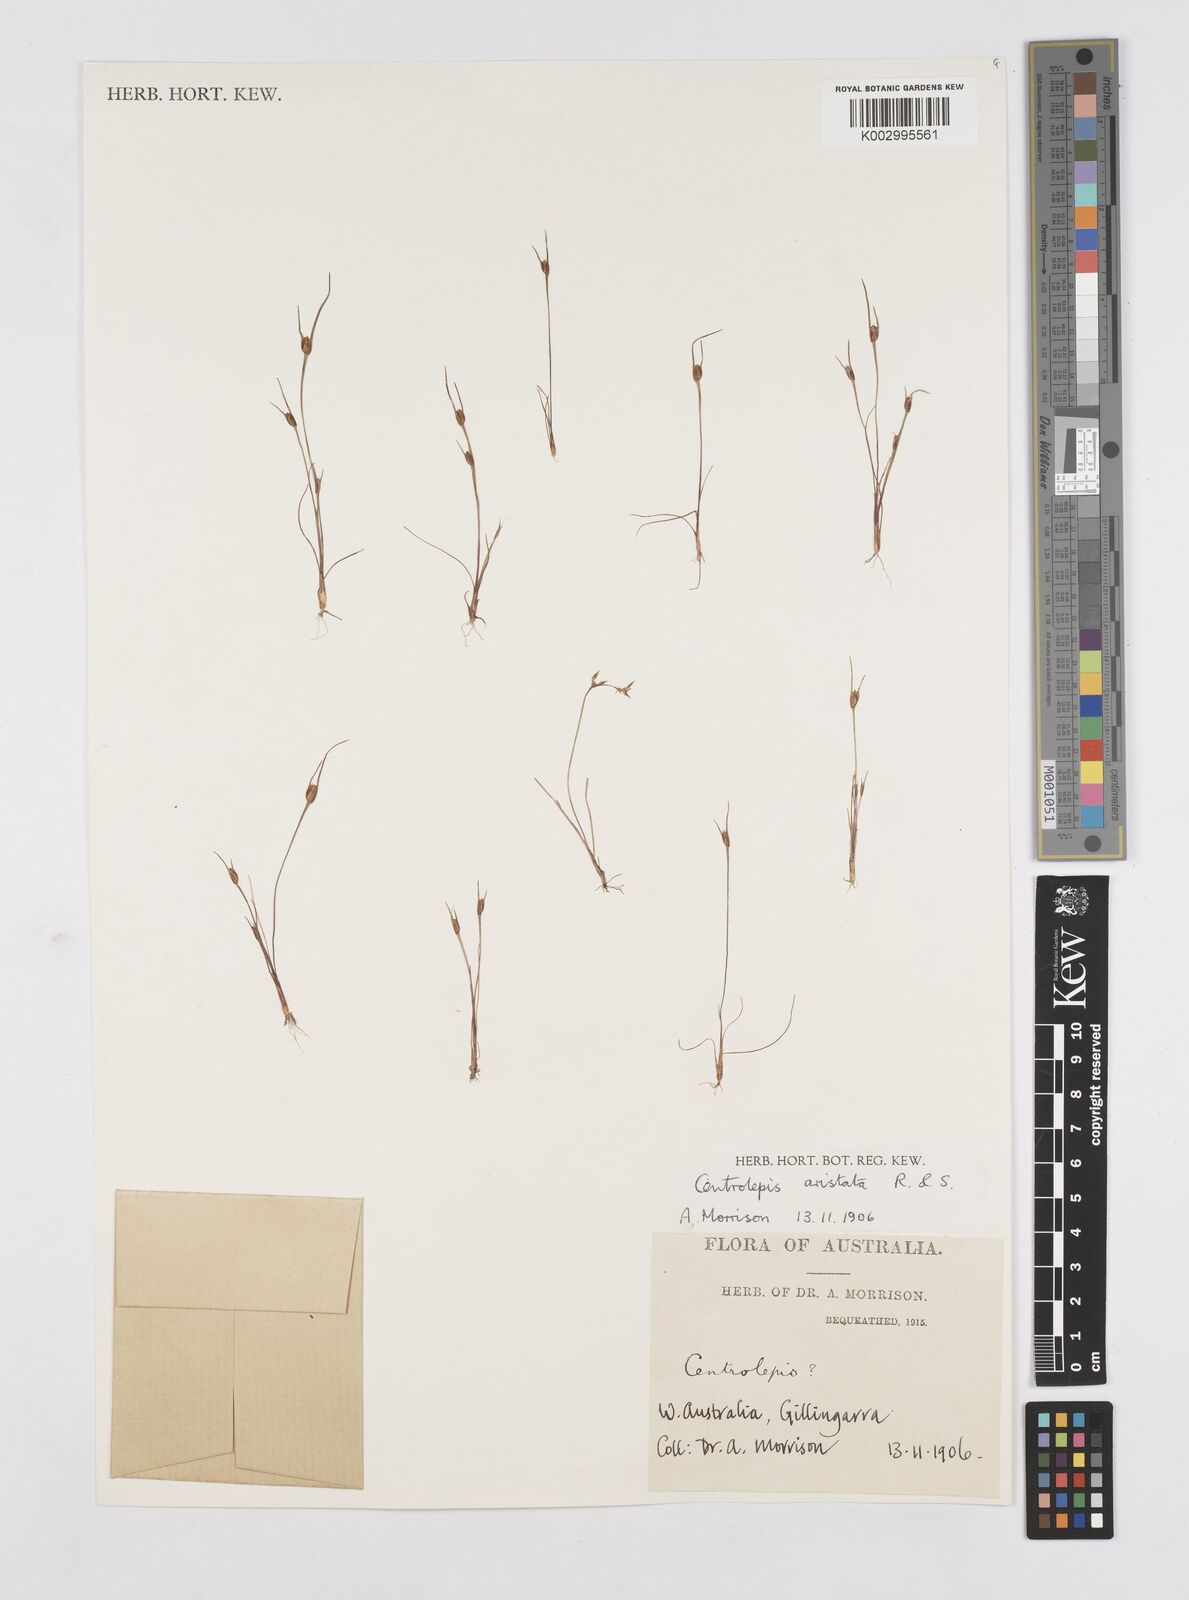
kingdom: Plantae
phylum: Tracheophyta
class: Liliopsida
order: Poales
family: Restionaceae
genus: Centrolepis
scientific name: Centrolepis aristata
